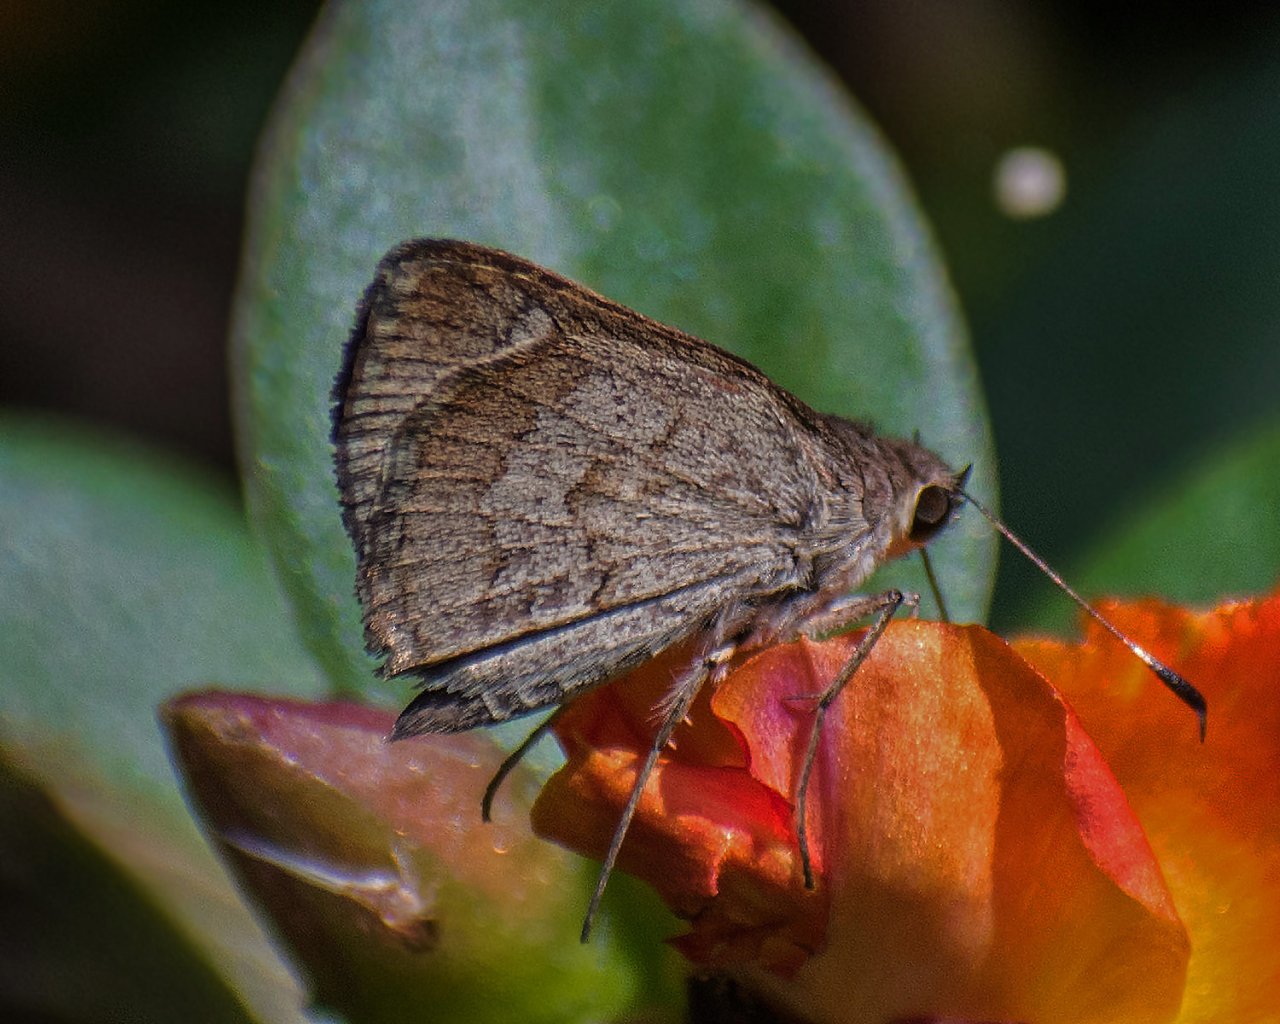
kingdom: Animalia
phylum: Arthropoda
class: Insecta
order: Lepidoptera
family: Hesperiidae
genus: Callimormus
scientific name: Callimormus saturnus
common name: Saturnus Skipper
